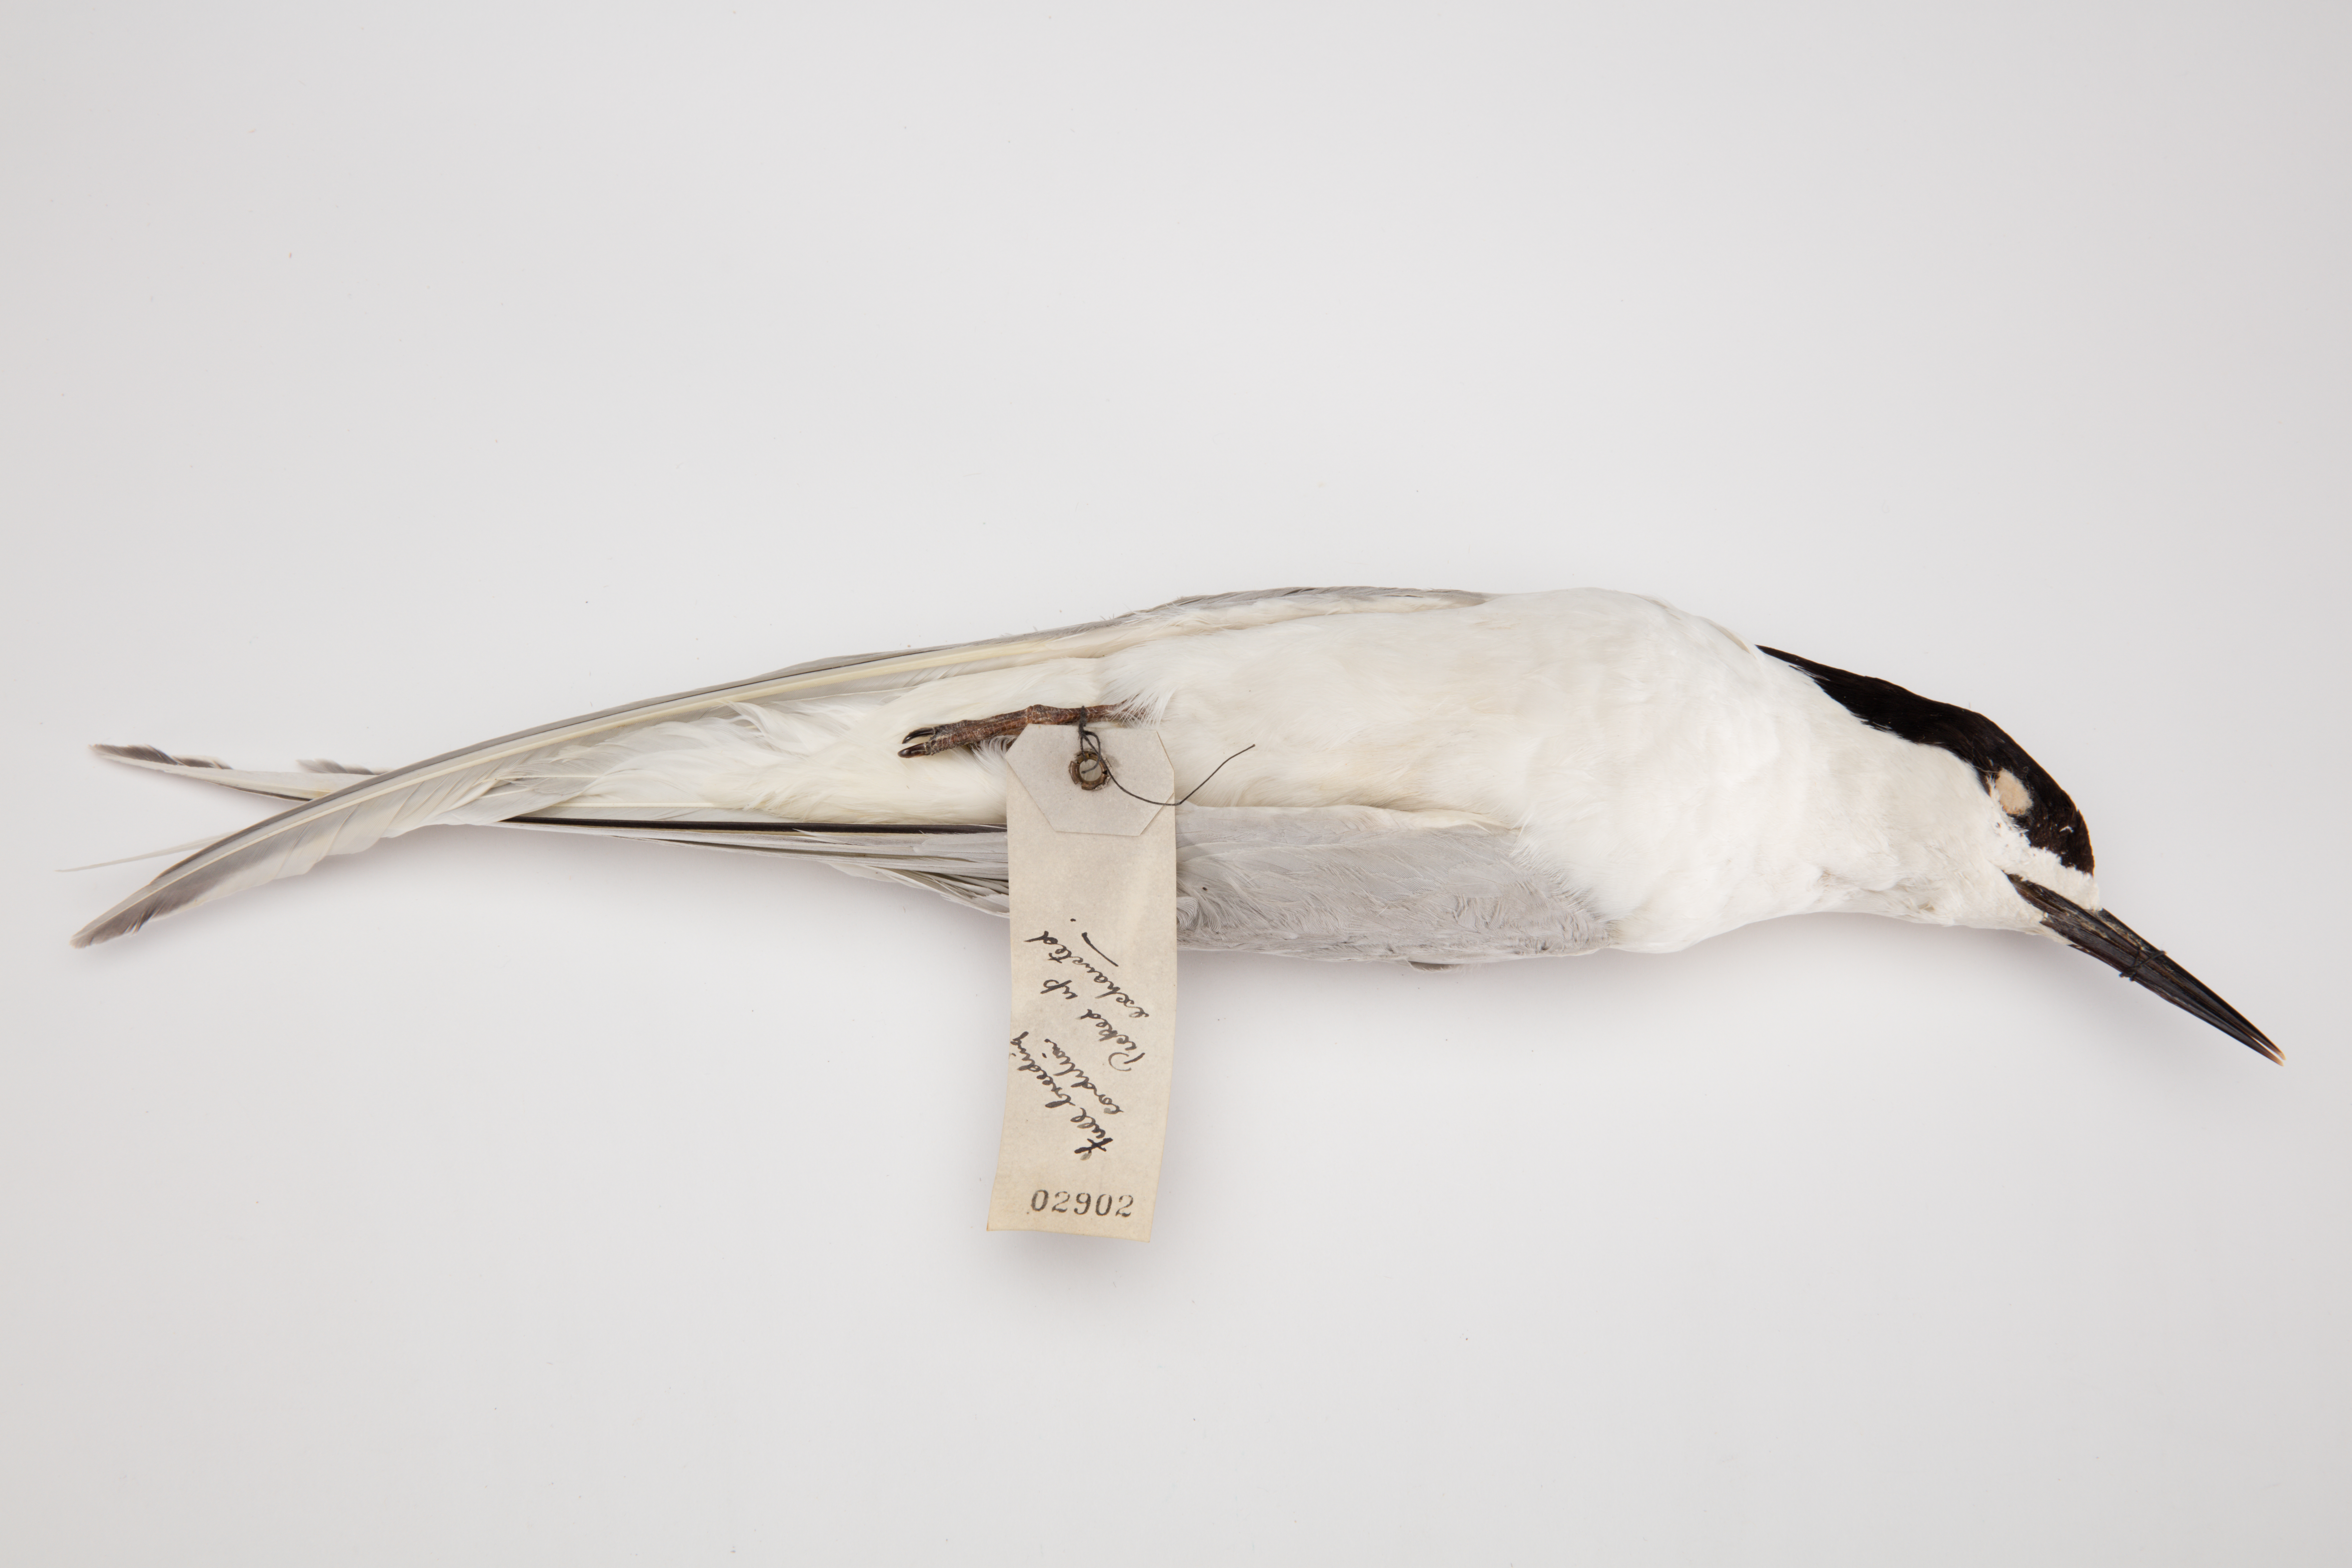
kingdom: Animalia
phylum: Chordata
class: Aves
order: Charadriiformes
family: Laridae
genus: Sterna
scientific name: Sterna striata
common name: White-fronted tern
